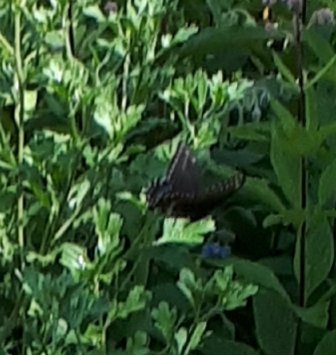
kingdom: Animalia
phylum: Arthropoda
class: Insecta
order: Lepidoptera
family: Papilionidae
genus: Papilio
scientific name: Papilio polyxenes
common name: Black Swallowtail
